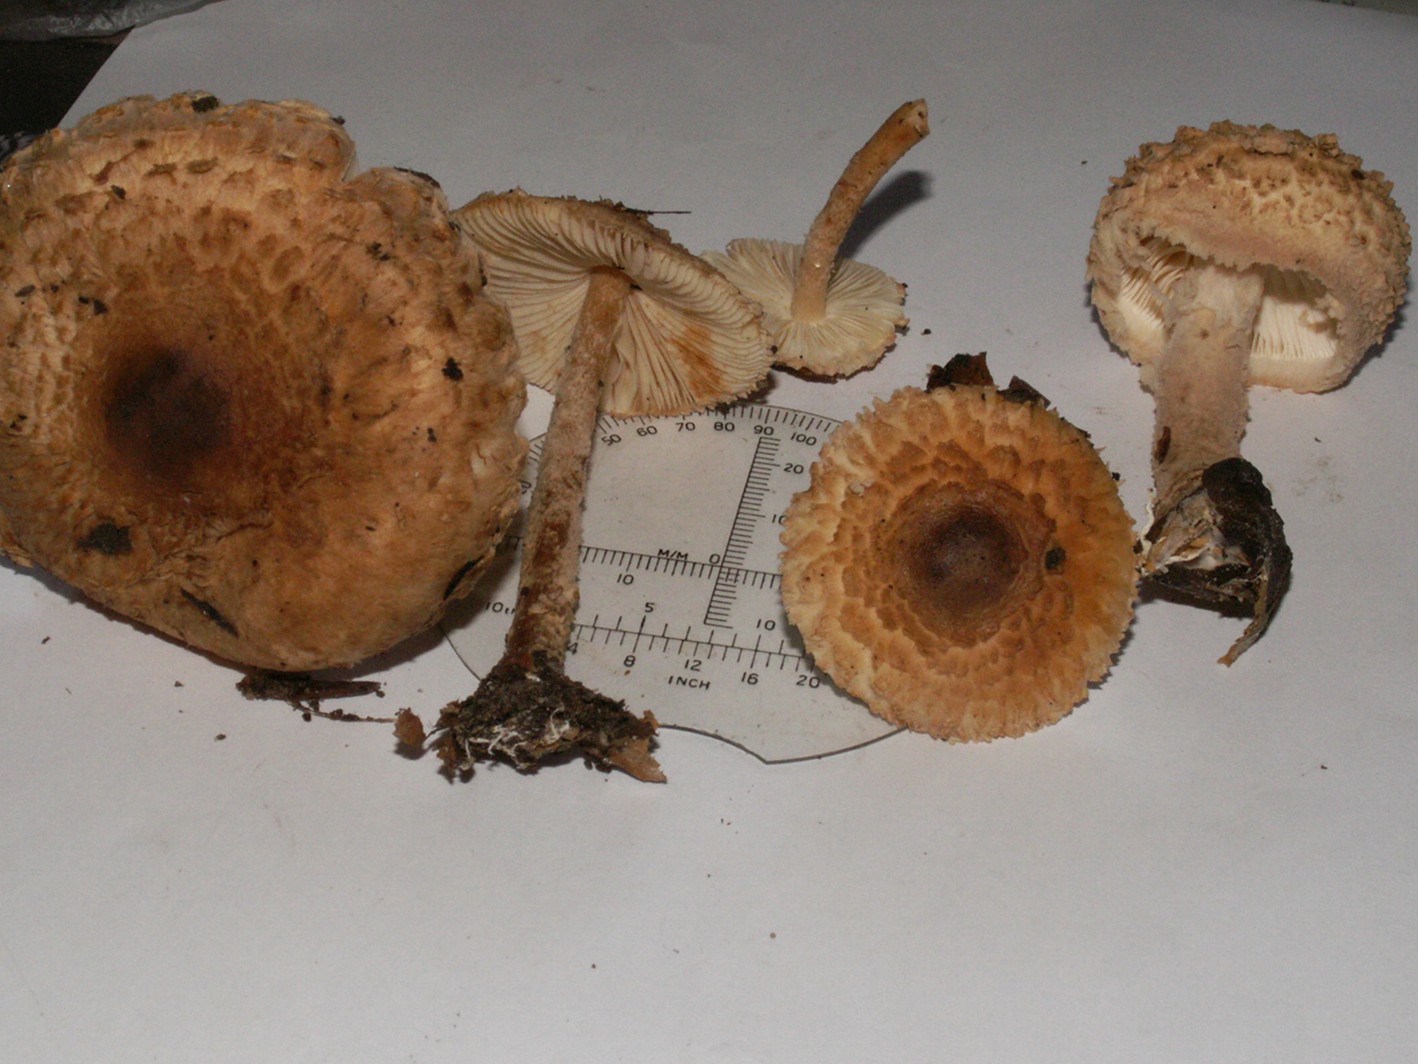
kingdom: Fungi
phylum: Basidiomycota
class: Agaricomycetes
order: Agaricales
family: Agaricaceae
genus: Lepiota
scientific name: Lepiota magnispora
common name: gulfnugget parasolhat
